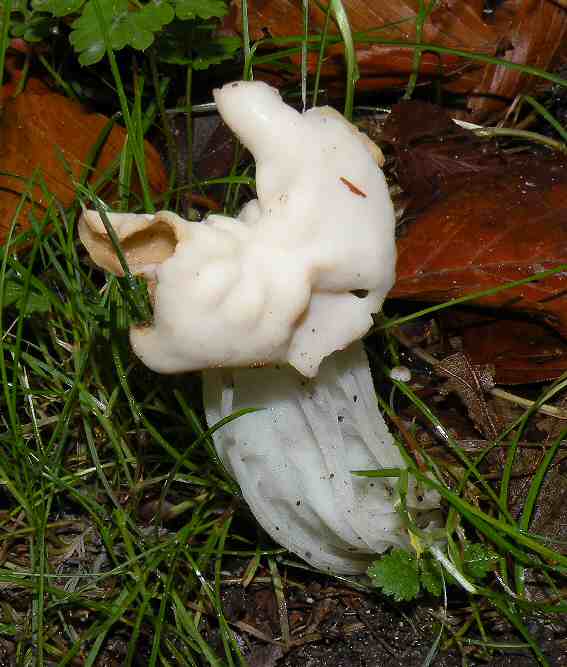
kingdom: Fungi
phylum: Ascomycota
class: Pezizomycetes
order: Pezizales
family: Helvellaceae
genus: Helvella
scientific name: Helvella crispa
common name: kruset foldhat
